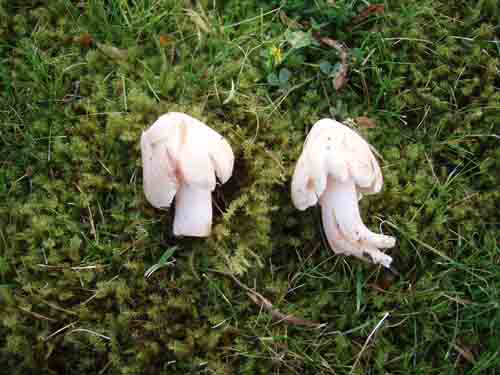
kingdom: Fungi
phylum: Basidiomycota
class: Agaricomycetes
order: Agaricales
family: Inocybaceae
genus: Inosperma
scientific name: Inosperma erubescens
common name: giftig trævlhat
